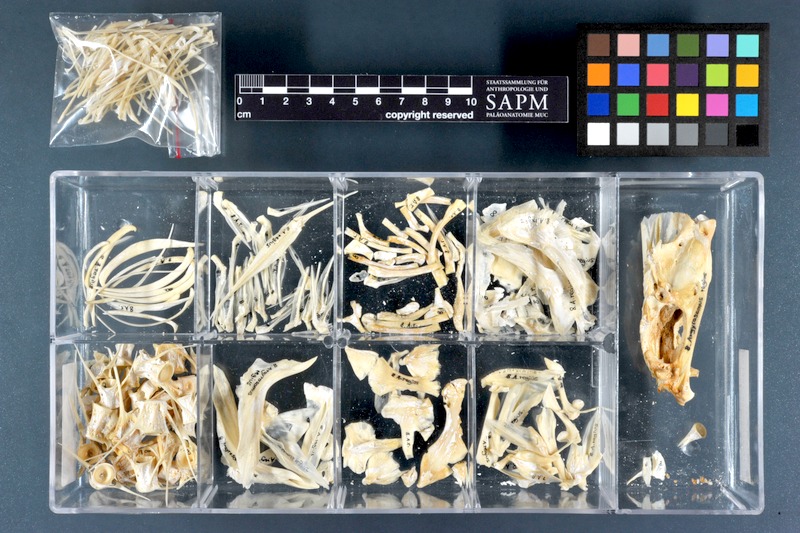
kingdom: Animalia
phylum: Chordata
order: Perciformes
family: Sciaenidae
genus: Argyrosomus
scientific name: Argyrosomus regius
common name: Meagre
